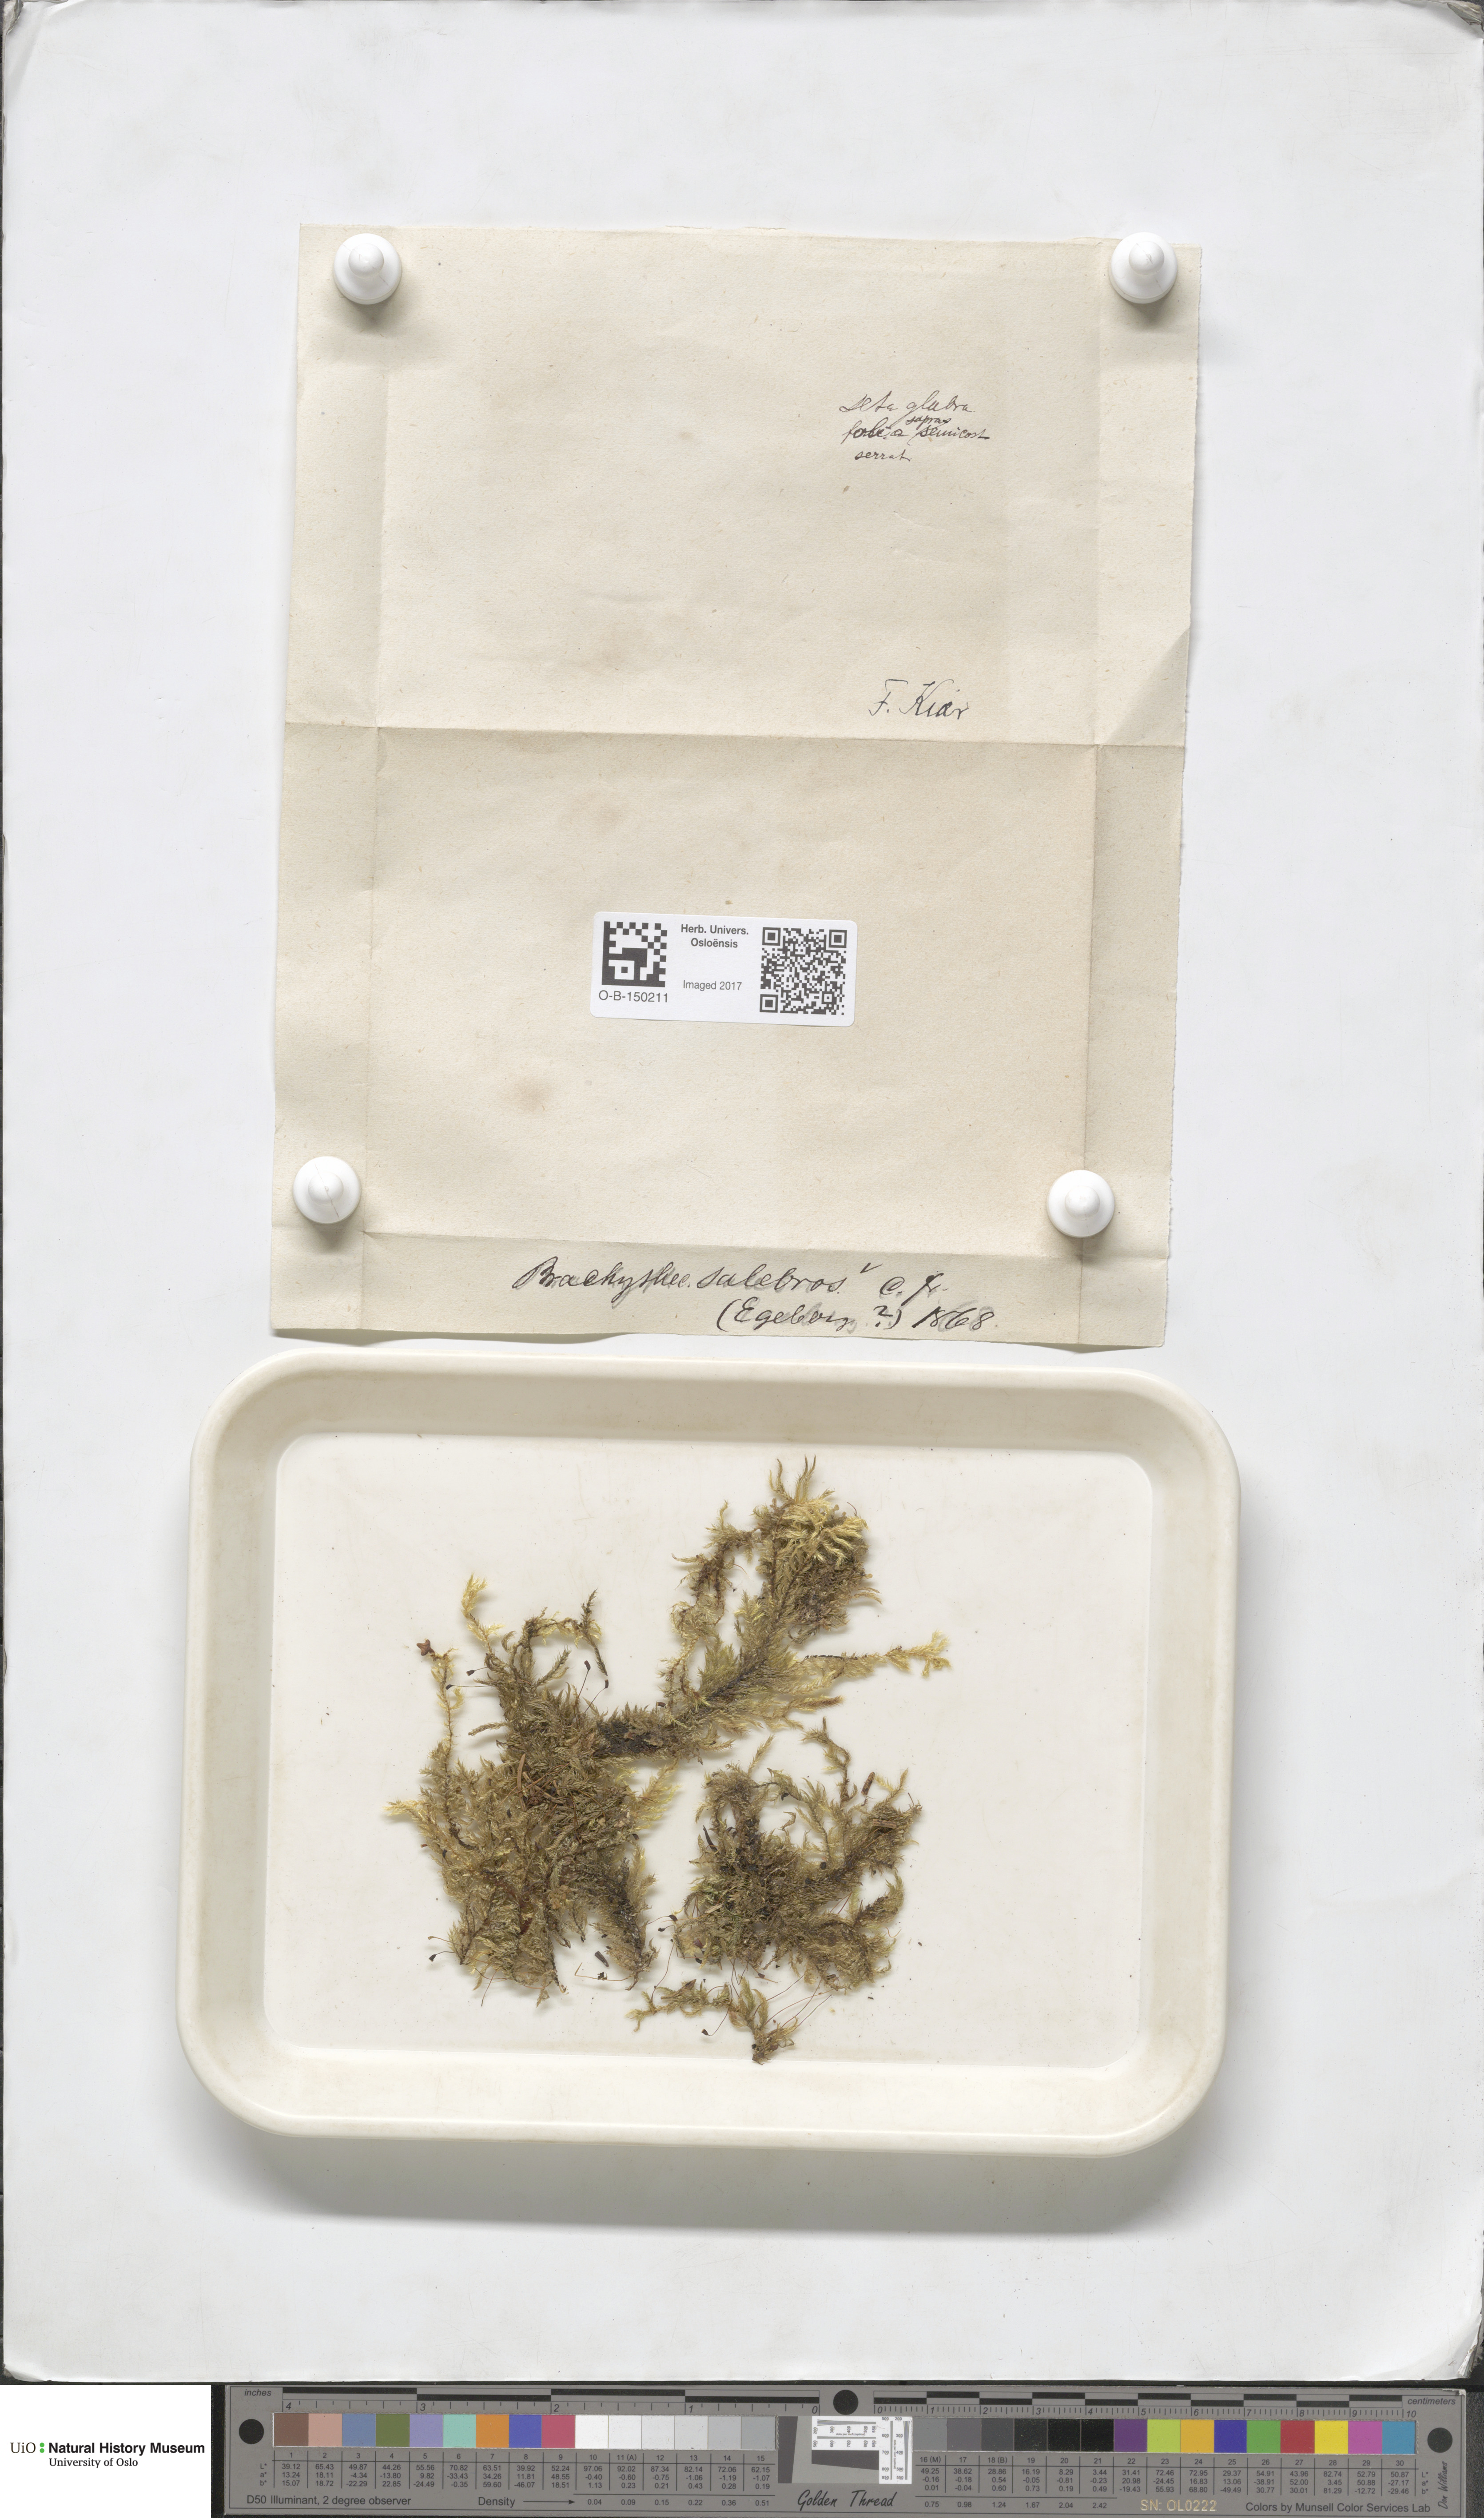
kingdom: Plantae
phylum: Bryophyta
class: Bryopsida
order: Hypnales
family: Brachytheciaceae
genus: Brachythecium
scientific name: Brachythecium salebrosum
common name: Smooth-stalk feather-moss
